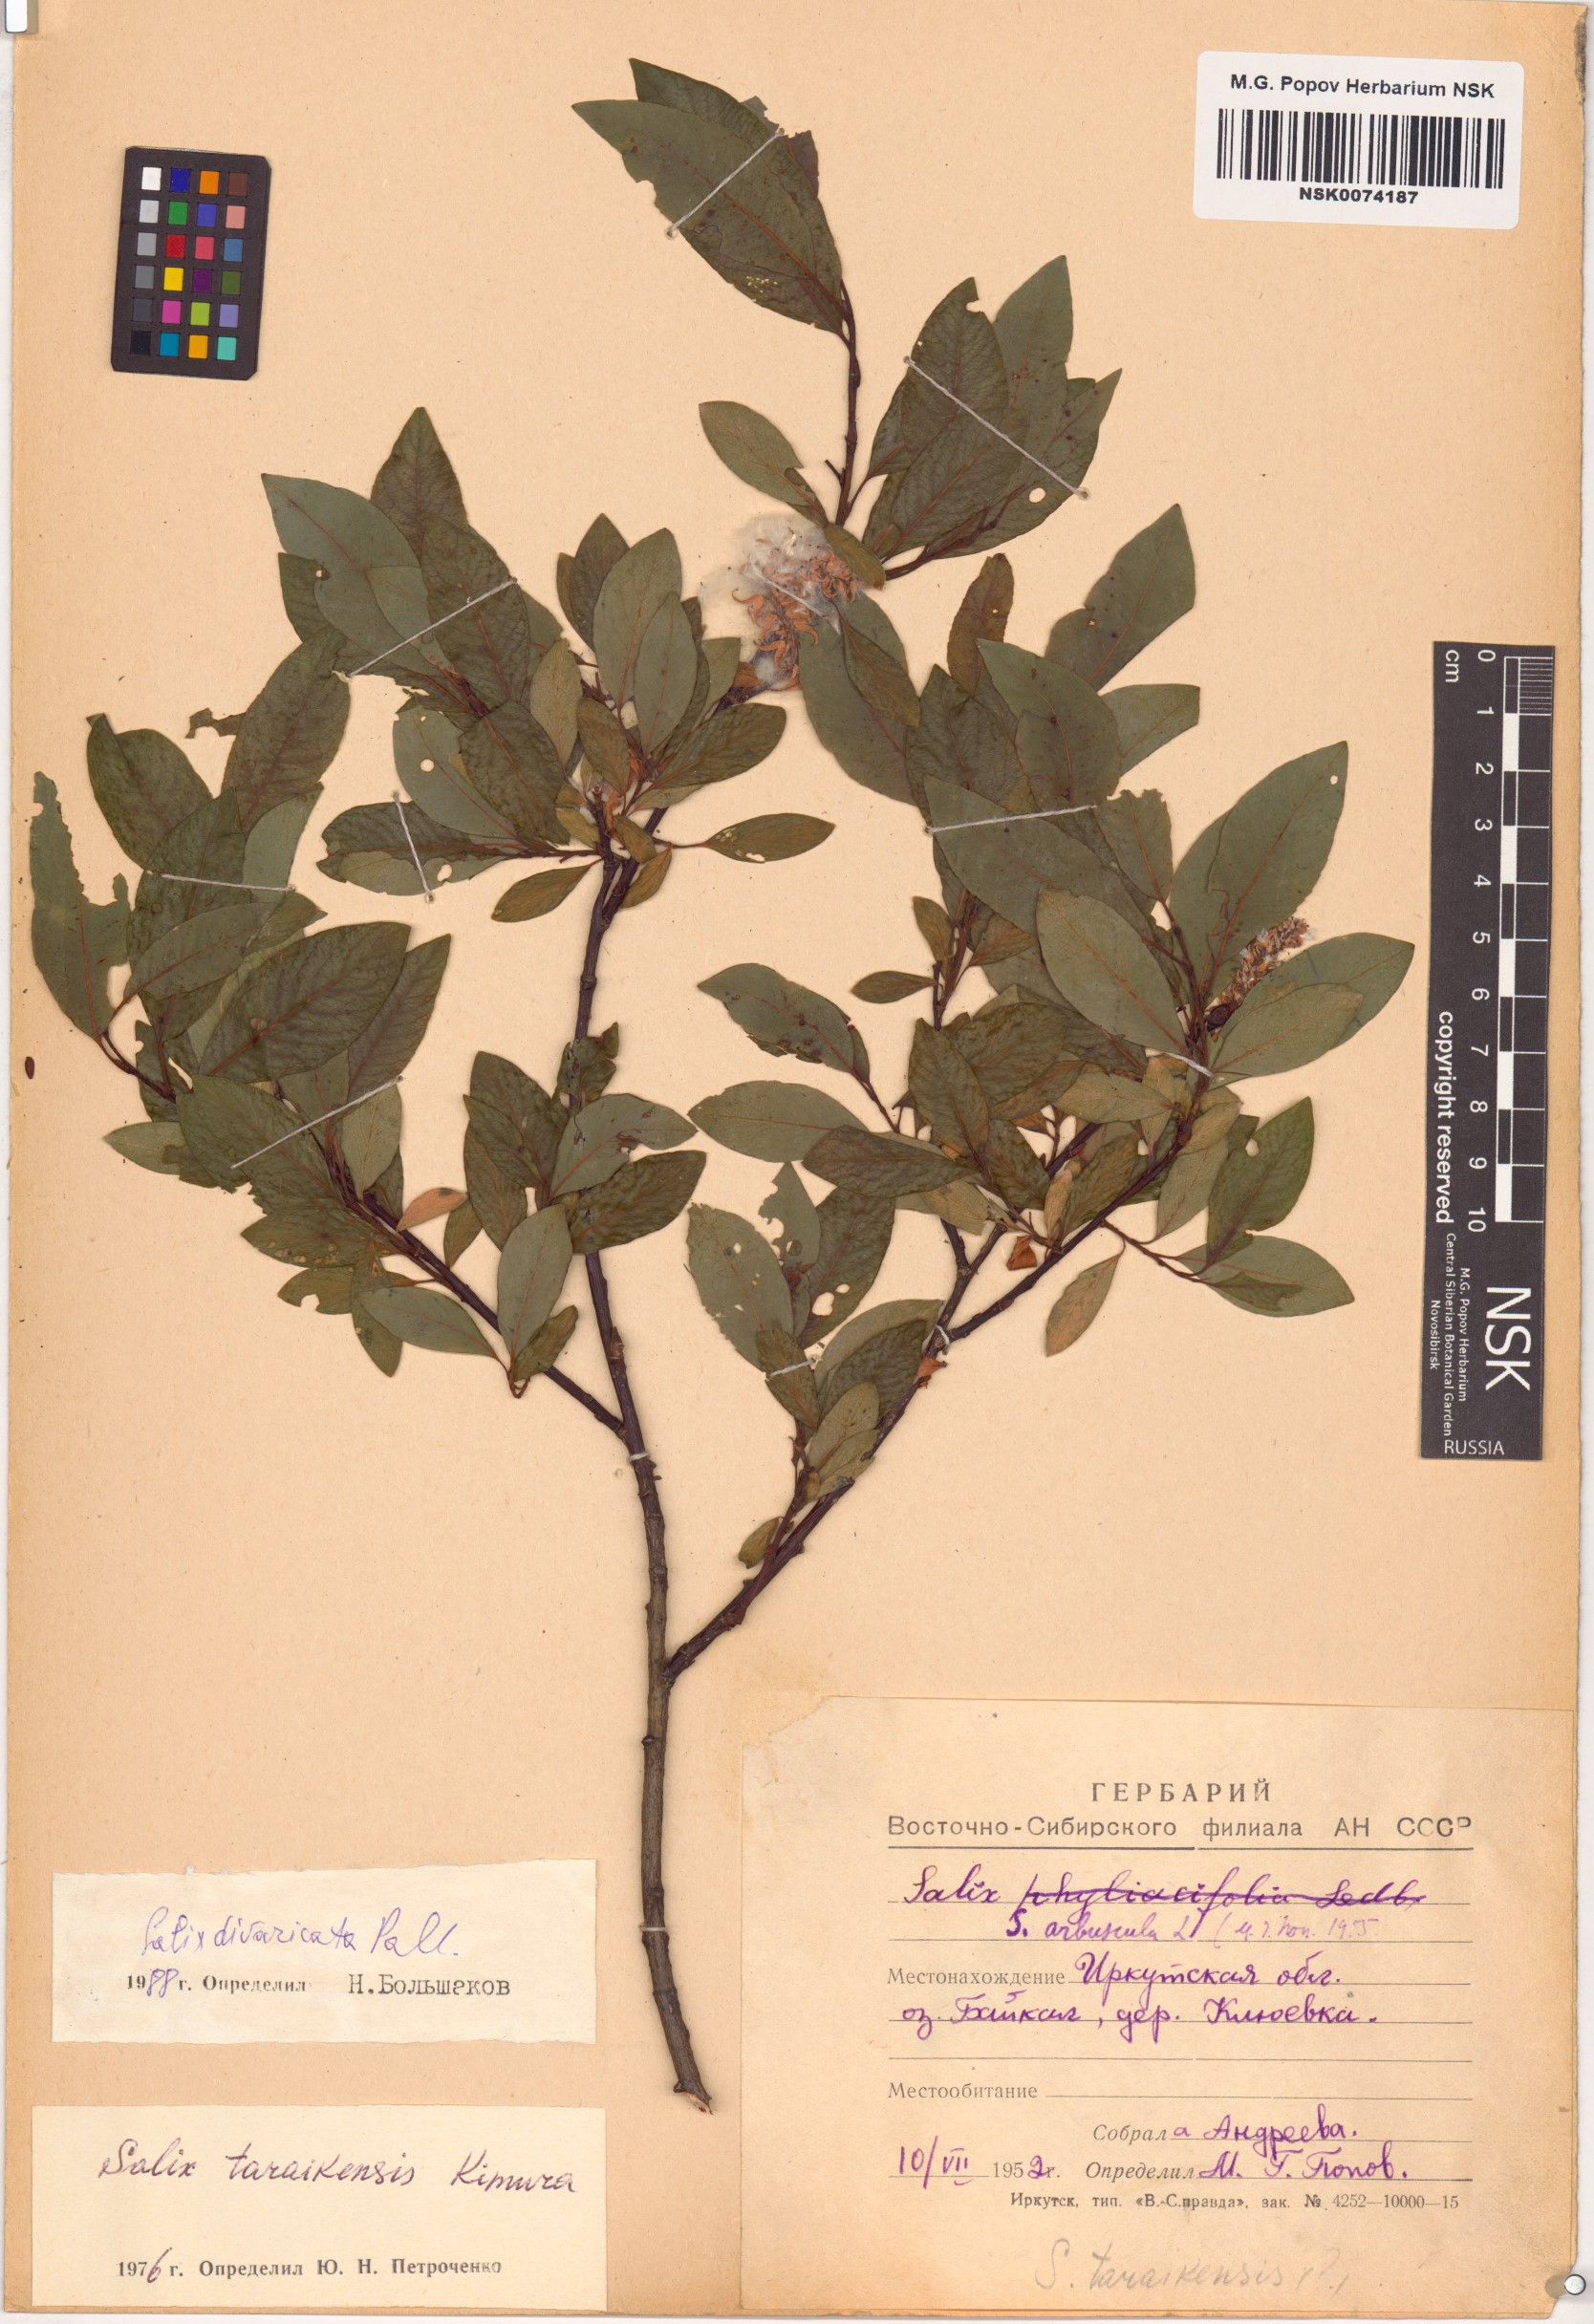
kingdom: Plantae
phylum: Tracheophyta
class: Magnoliopsida
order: Malpighiales
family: Salicaceae
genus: Salix
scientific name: Salix divaricata
